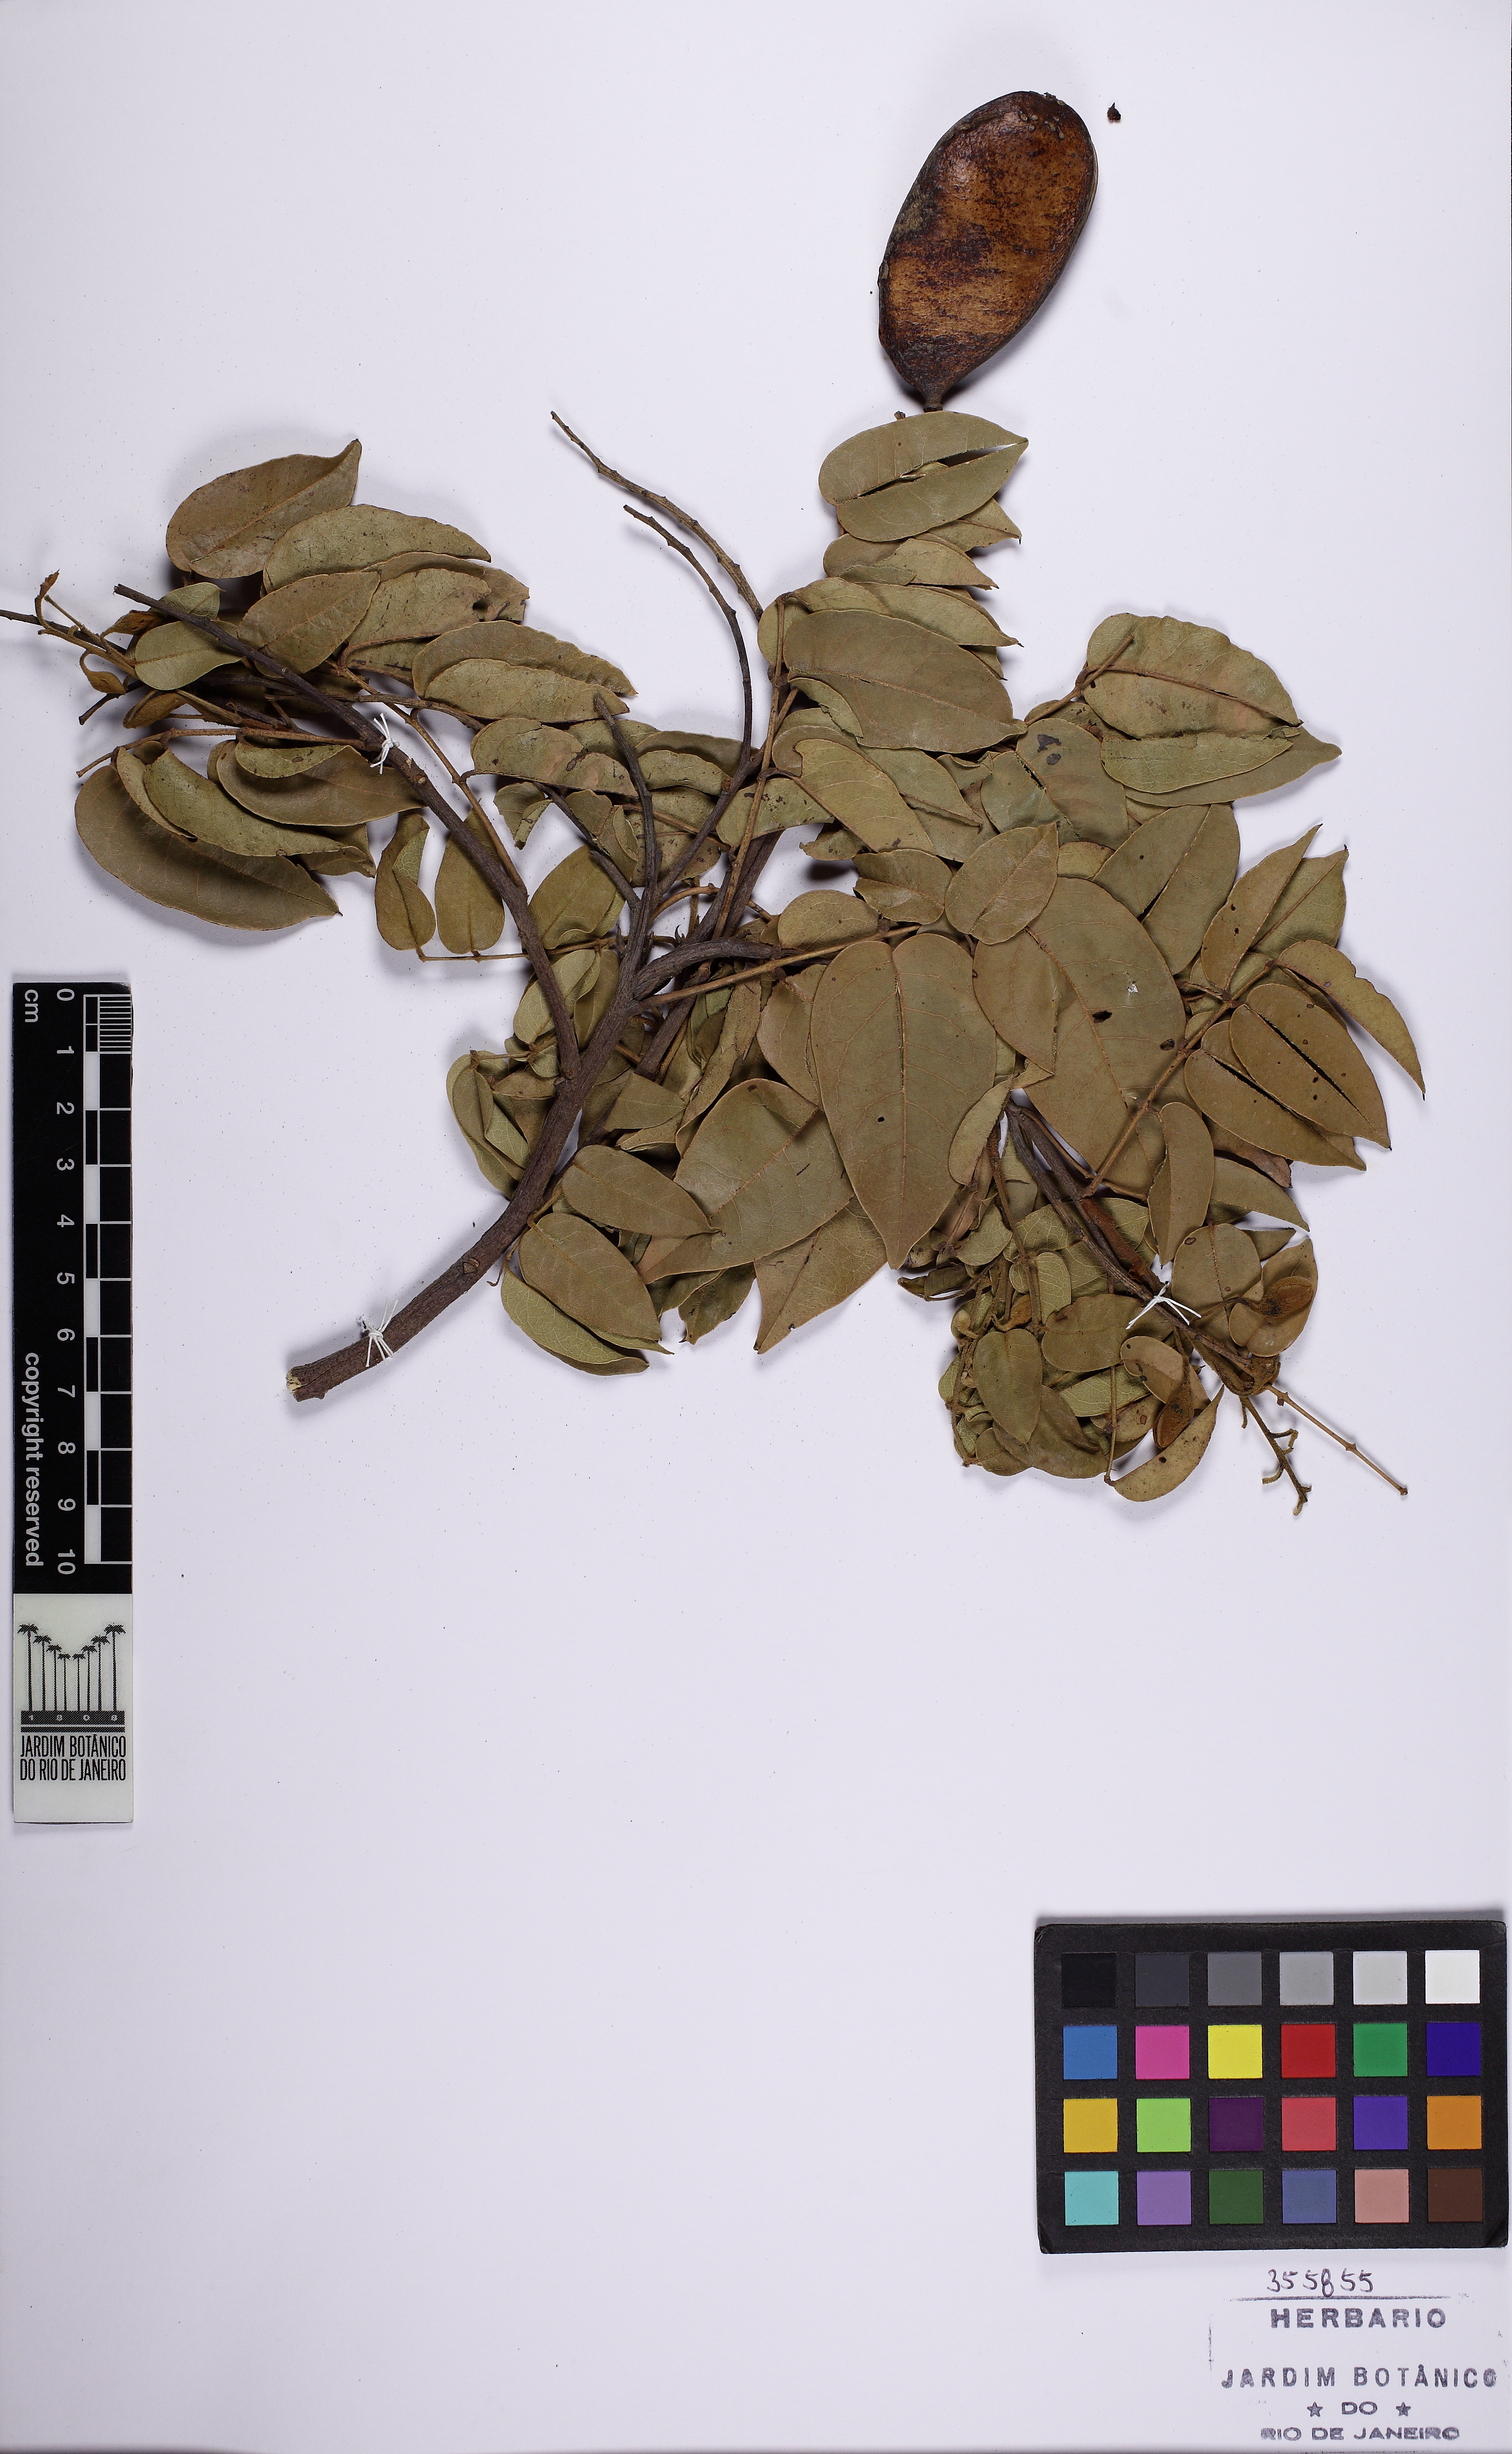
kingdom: Plantae
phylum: Tracheophyta
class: Magnoliopsida
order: Fabales
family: Fabaceae
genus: Cenostigma
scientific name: Cenostigma
